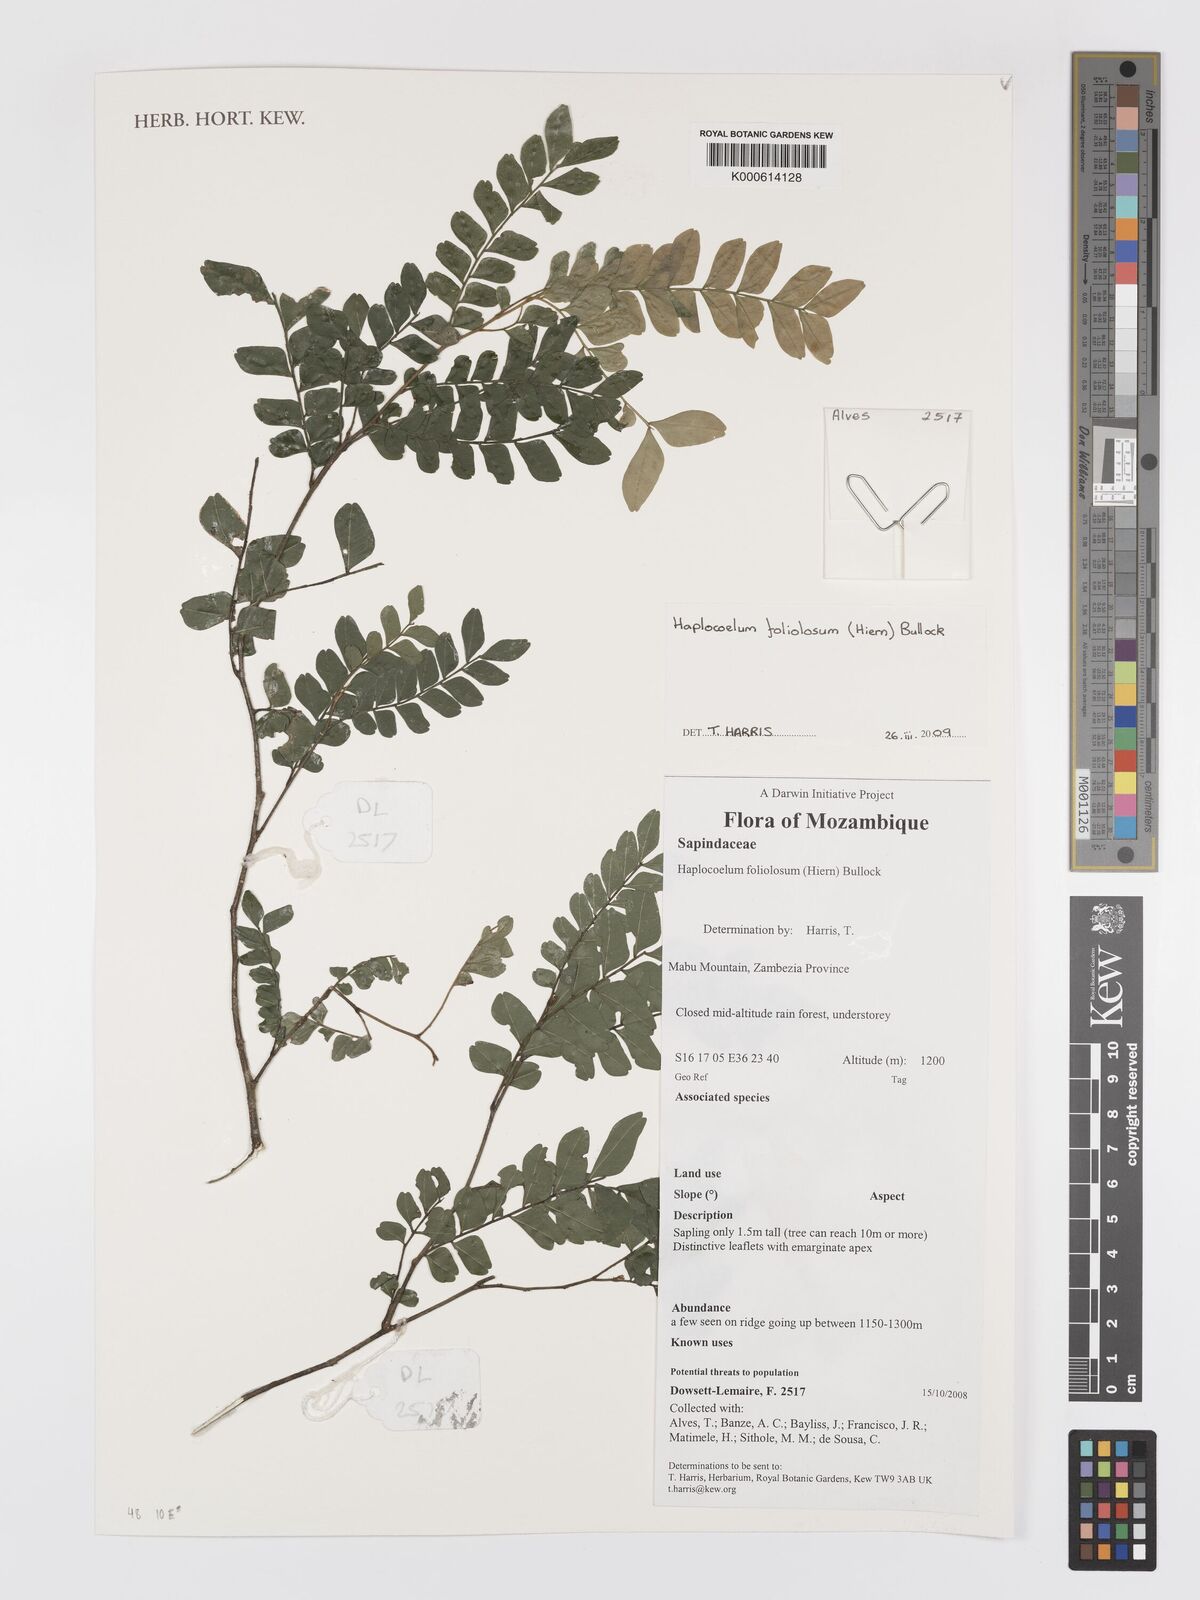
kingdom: Plantae
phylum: Tracheophyta
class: Magnoliopsida
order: Sapindales
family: Sapindaceae
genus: Haplocoelum
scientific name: Haplocoelum foliolosum
